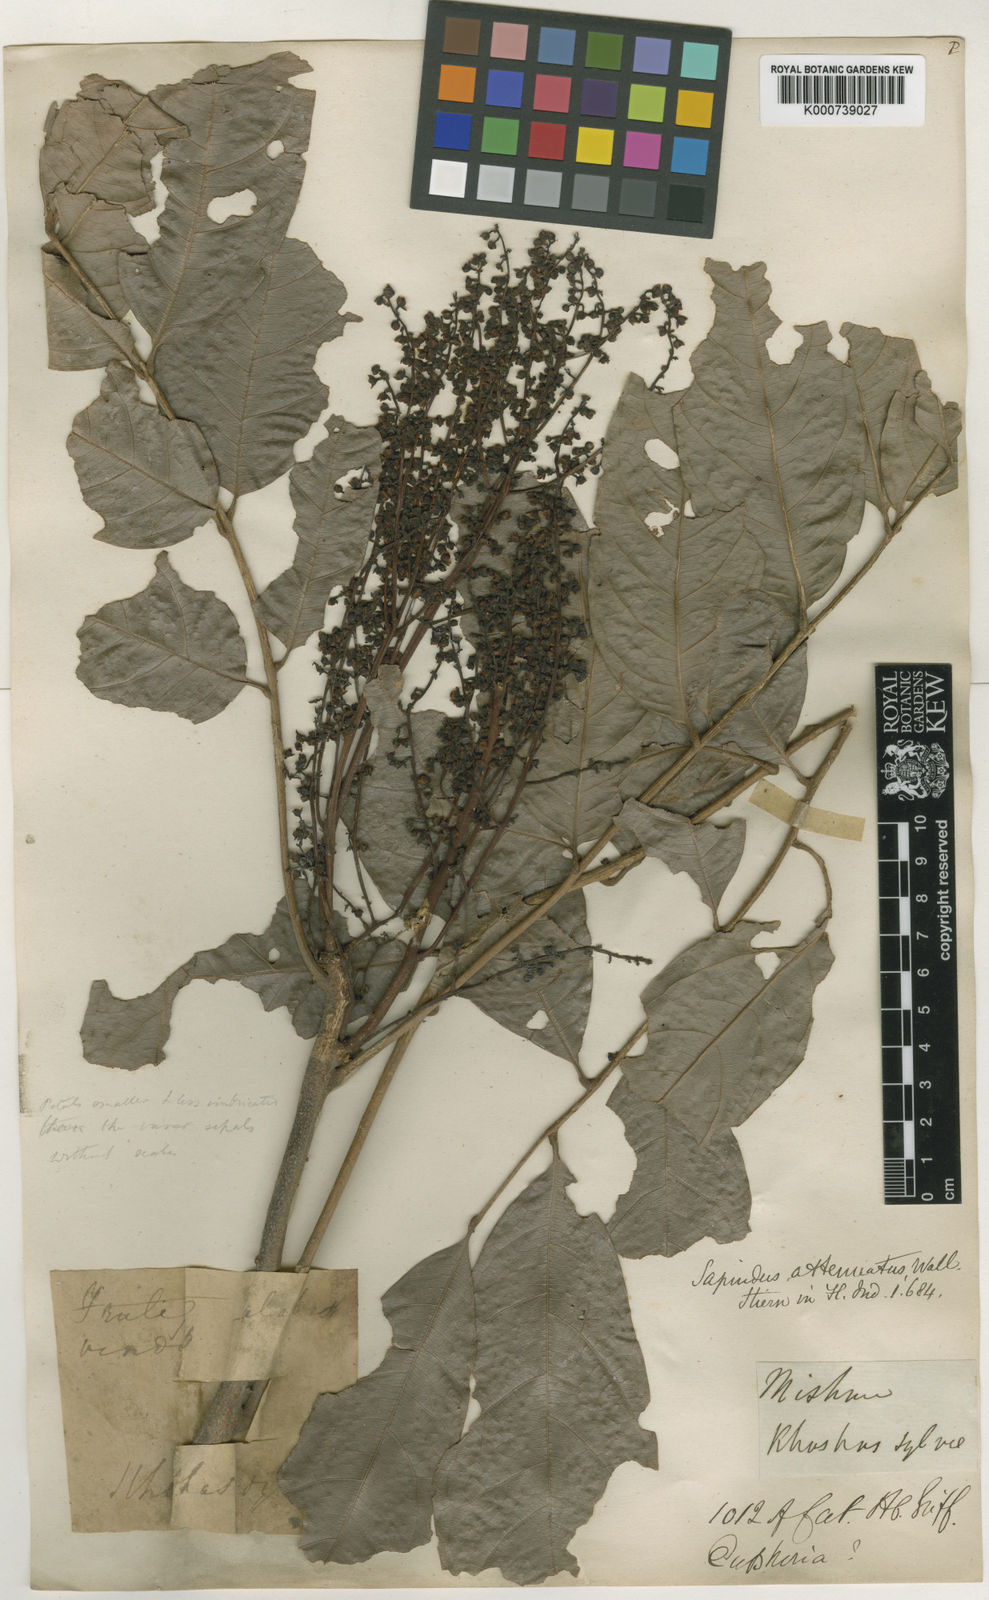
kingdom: Plantae
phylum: Tracheophyta
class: Magnoliopsida
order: Sapindales
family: Sapindaceae
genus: Lepisanthes
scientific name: Lepisanthes senegalensis
